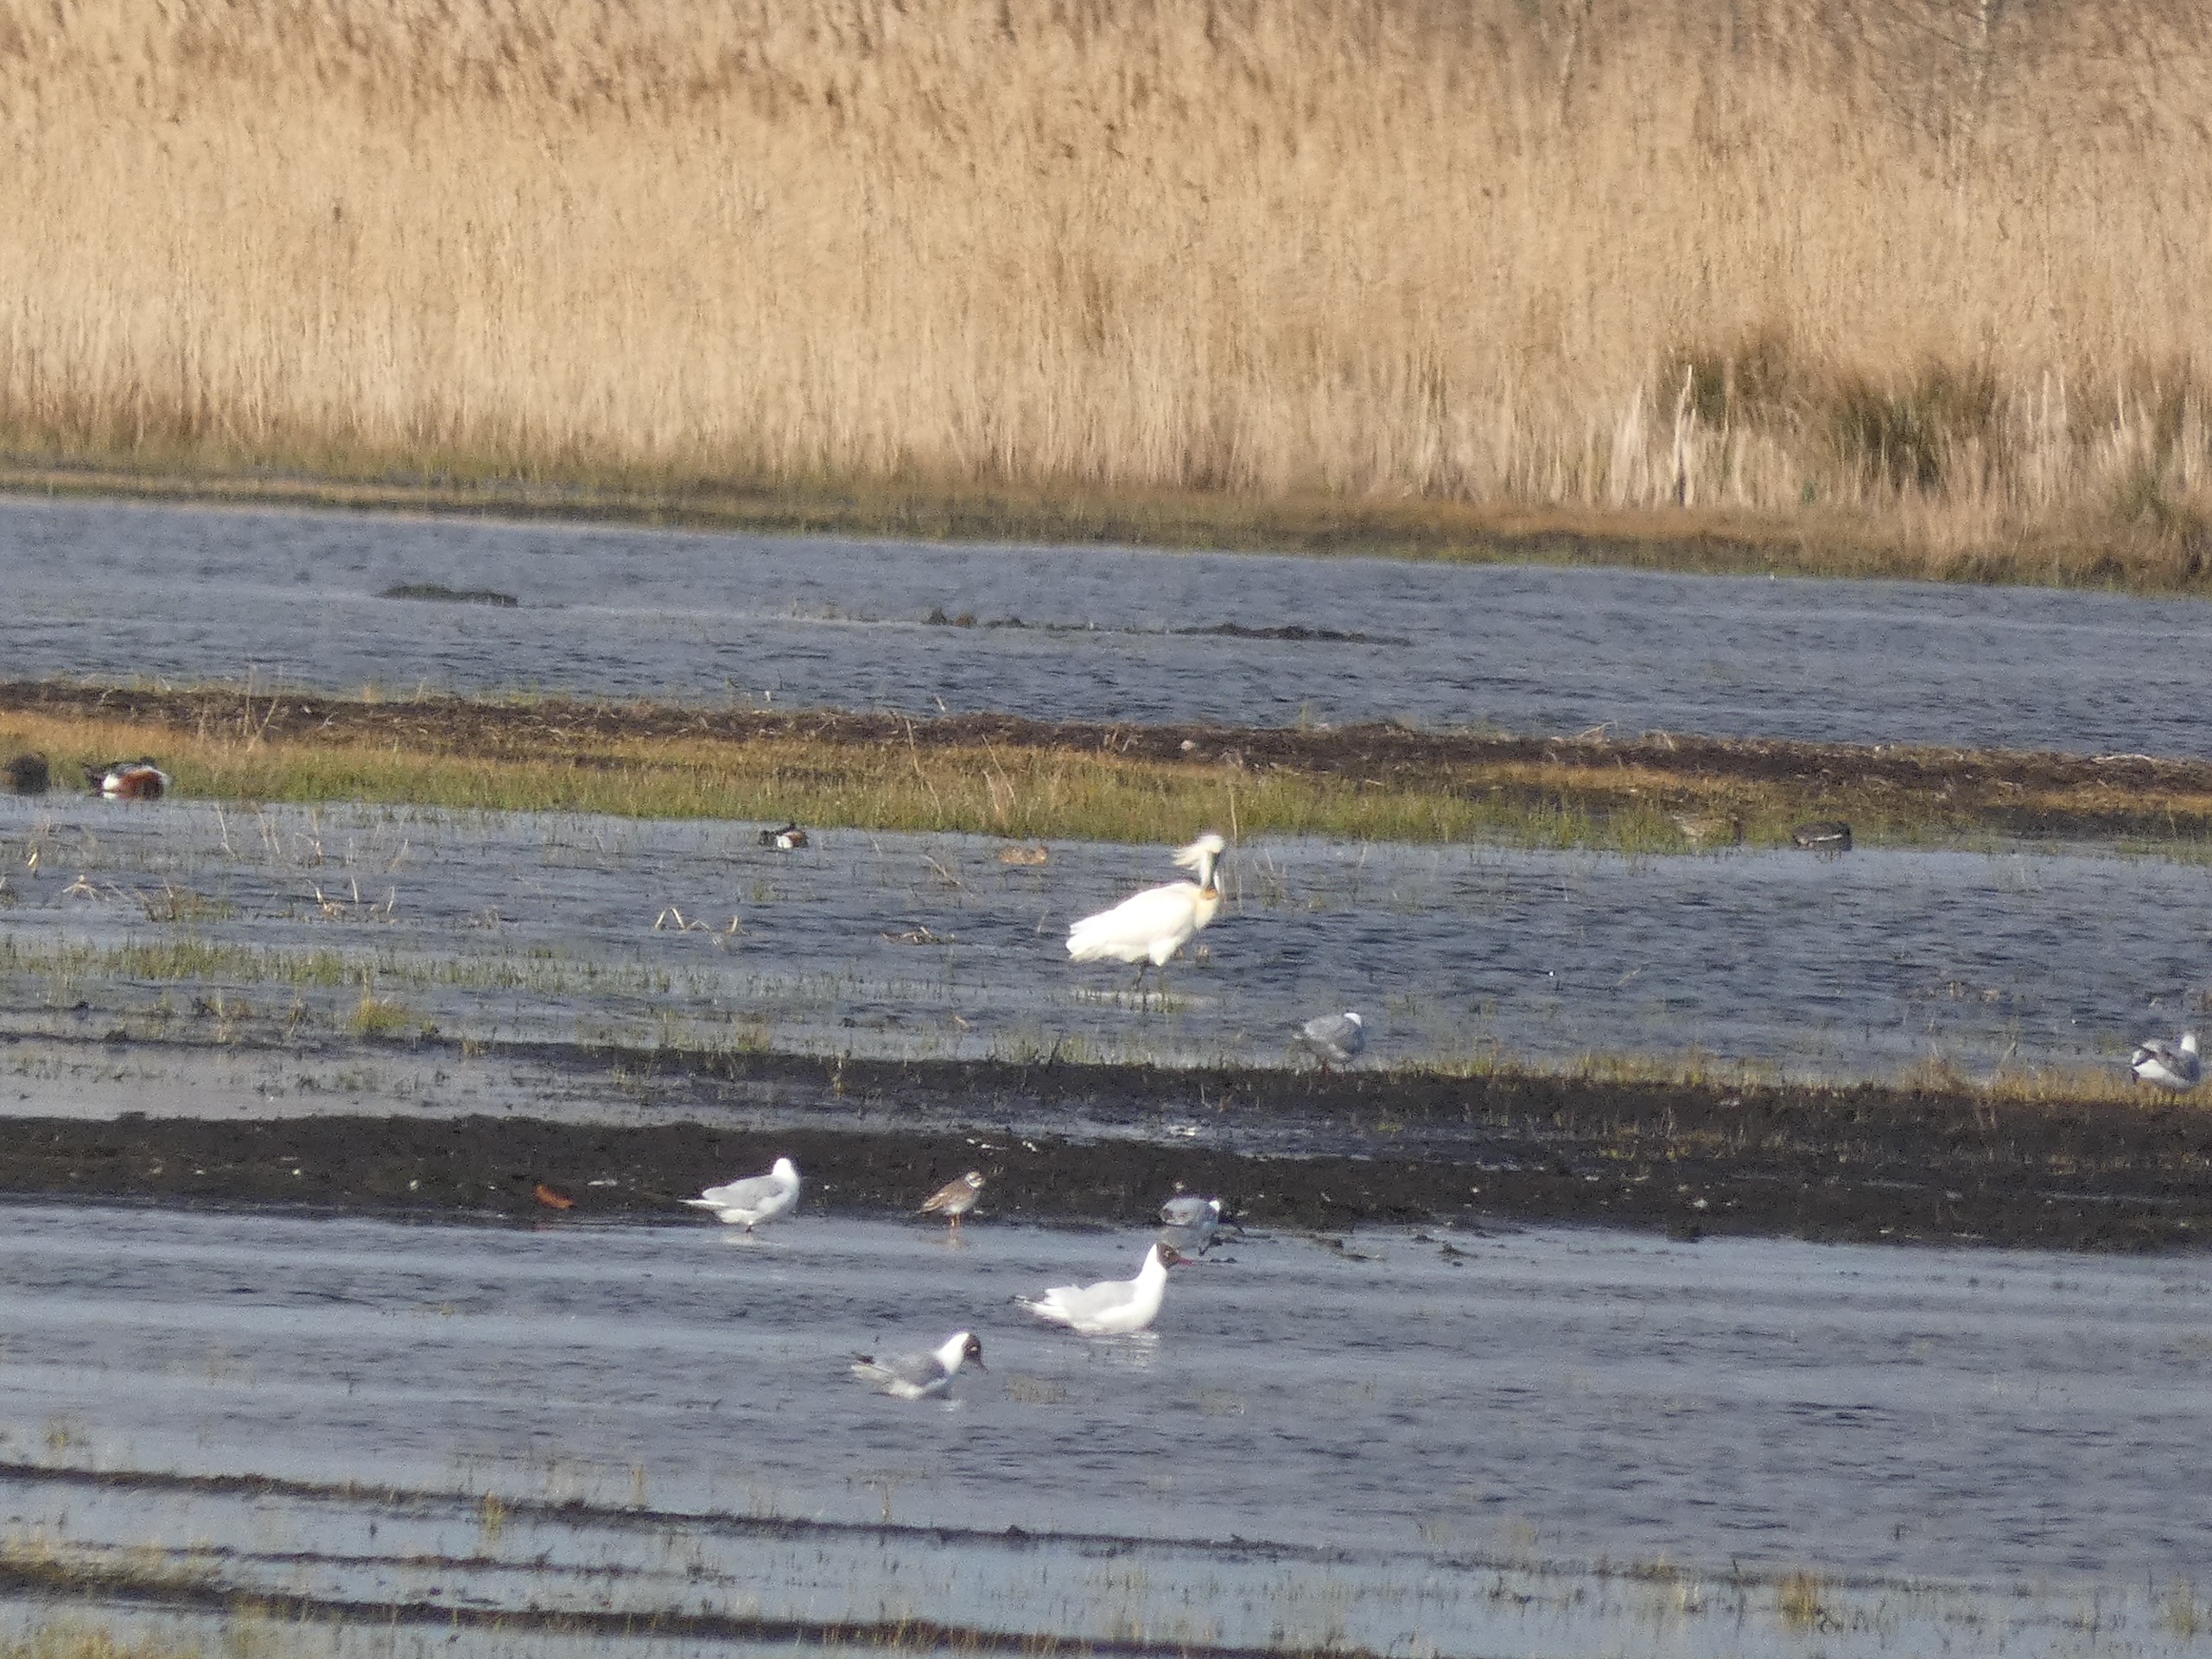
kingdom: Animalia
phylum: Chordata
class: Aves
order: Charadriiformes
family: Charadriidae
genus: Charadrius
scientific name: Charadrius hiaticula
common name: Stor præstekrave
